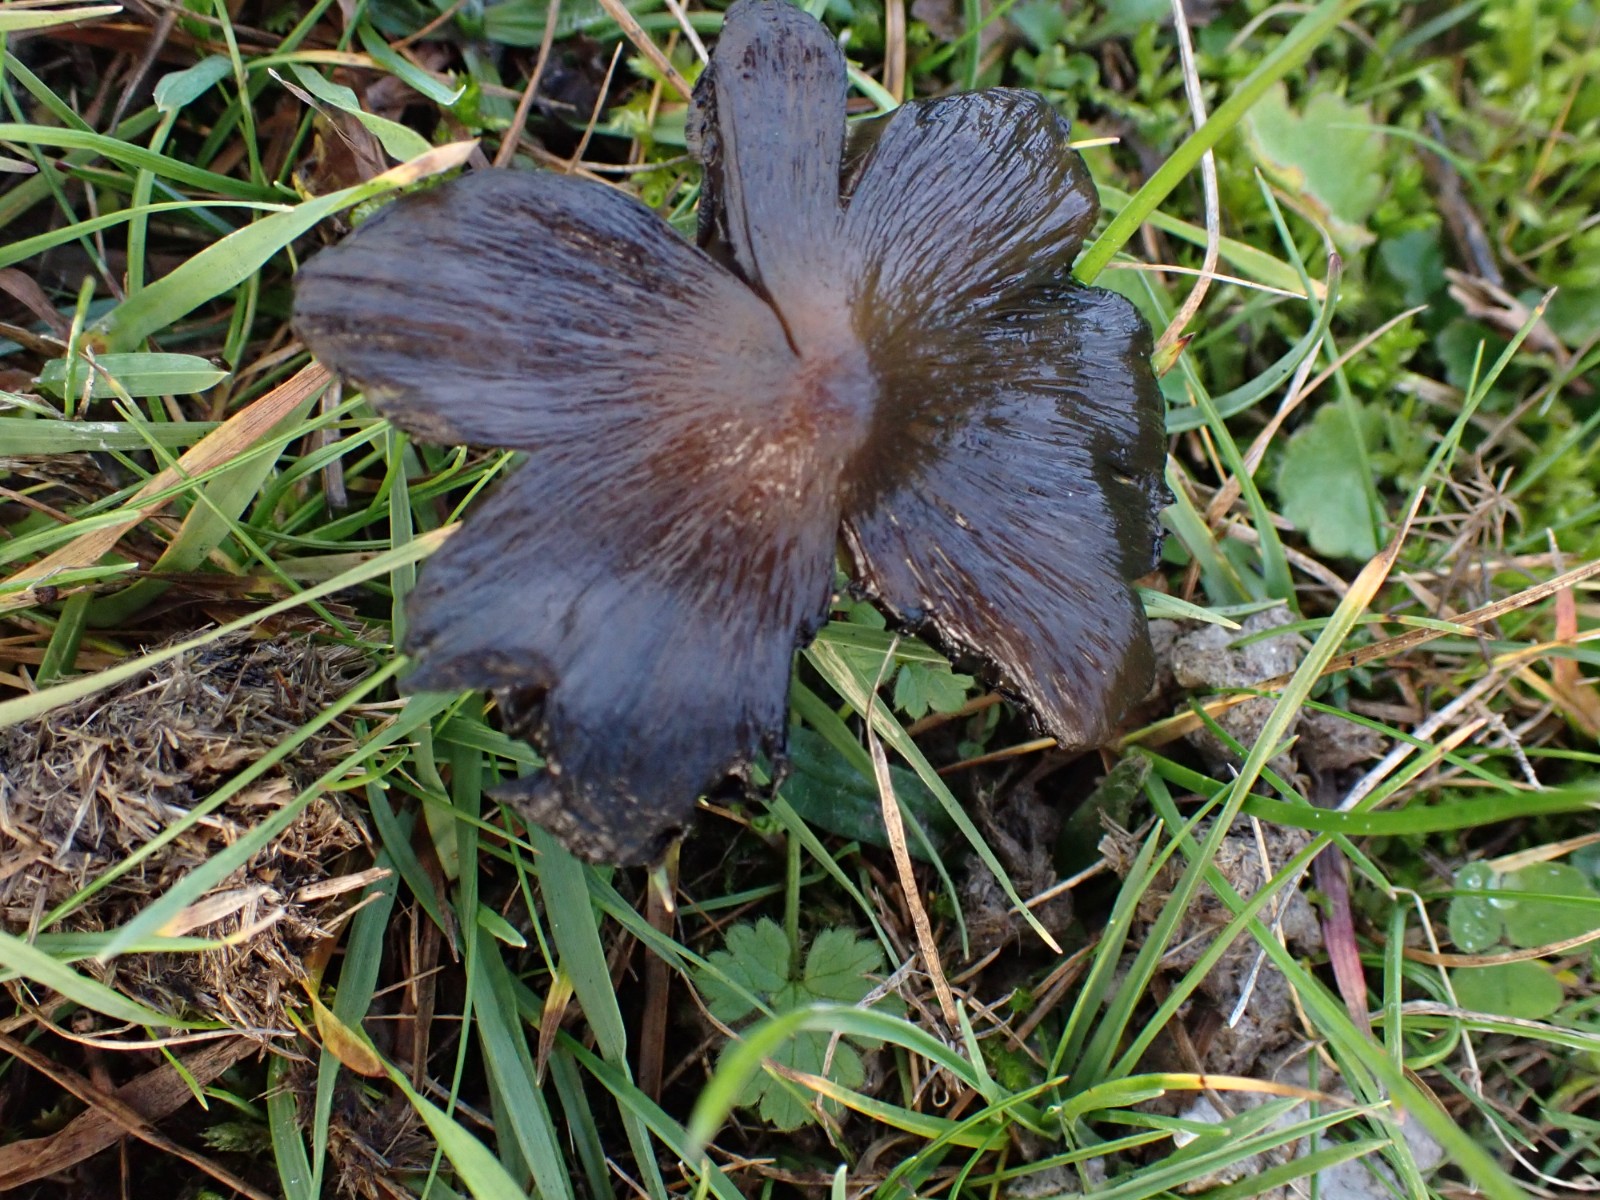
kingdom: Fungi
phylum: Basidiomycota
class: Agaricomycetes
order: Agaricales
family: Hygrophoraceae
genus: Hygrocybe
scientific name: Hygrocybe conica
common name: kegle-vokshat
